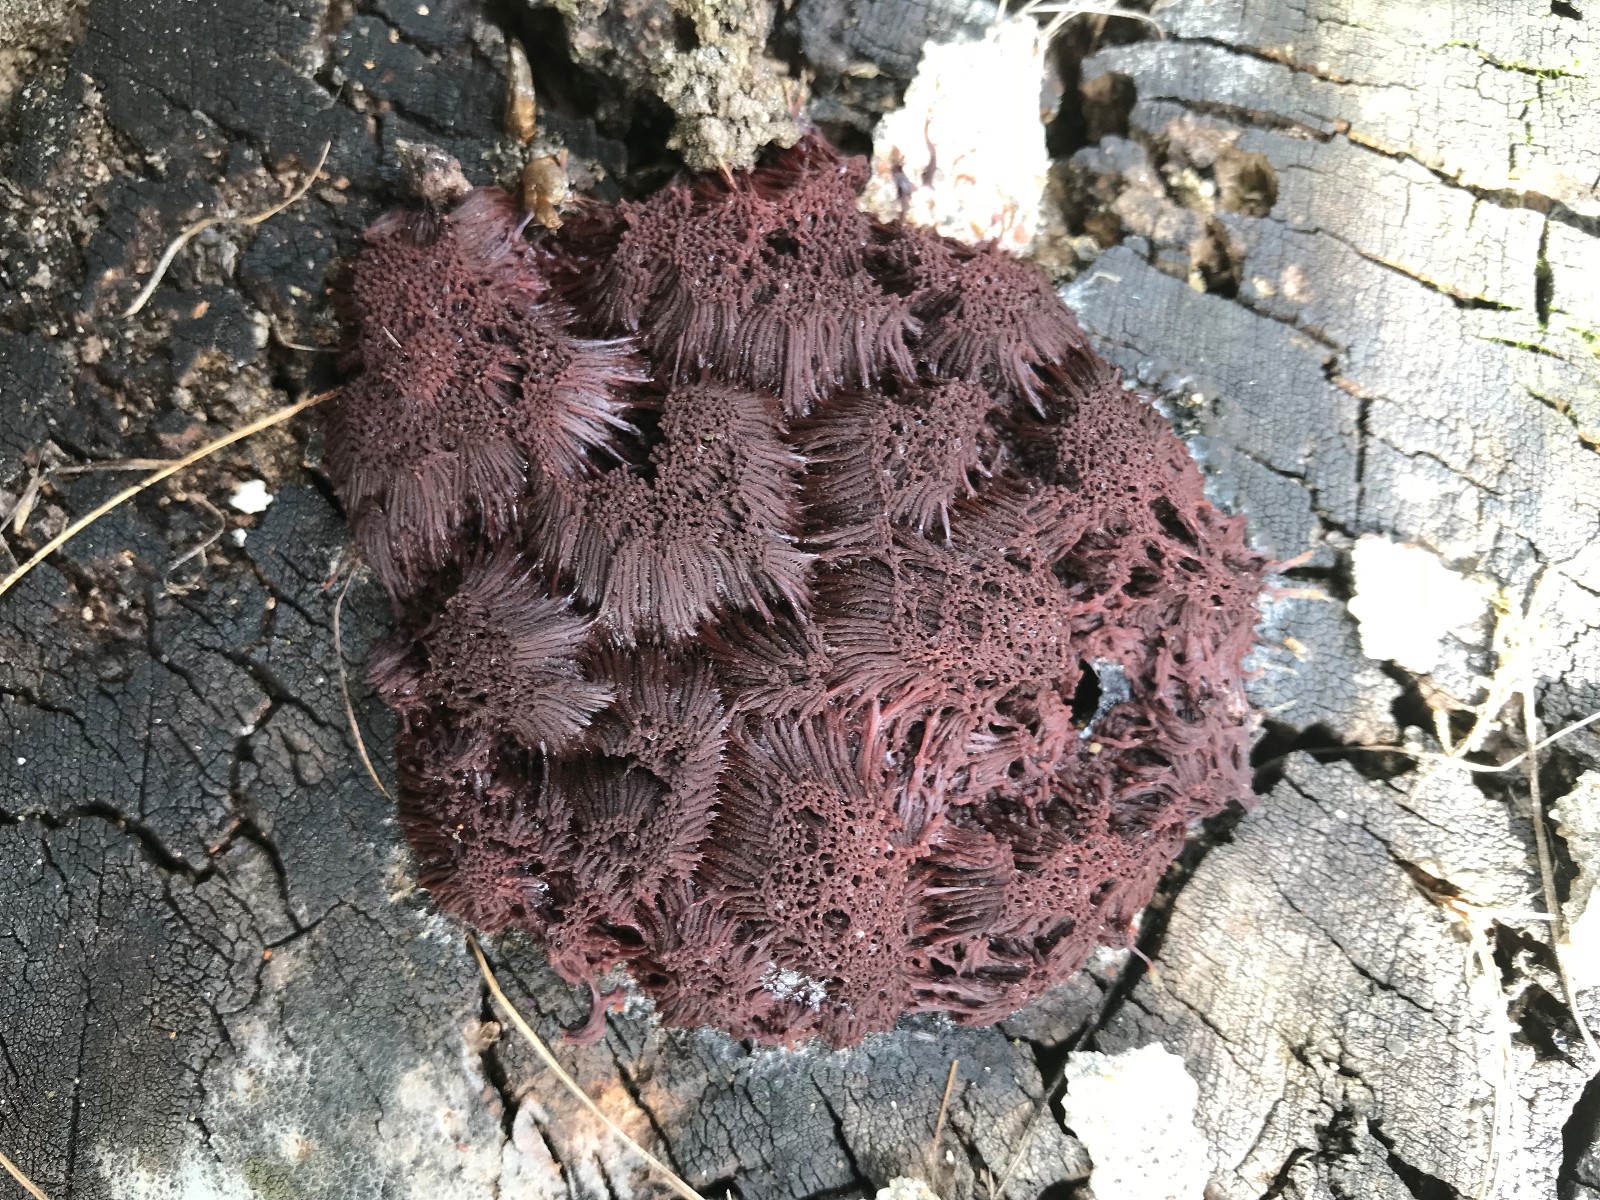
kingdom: Protozoa
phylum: Mycetozoa
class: Myxomycetes
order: Stemonitidales
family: Stemonitidaceae
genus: Stemonitis
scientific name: Stemonitis
